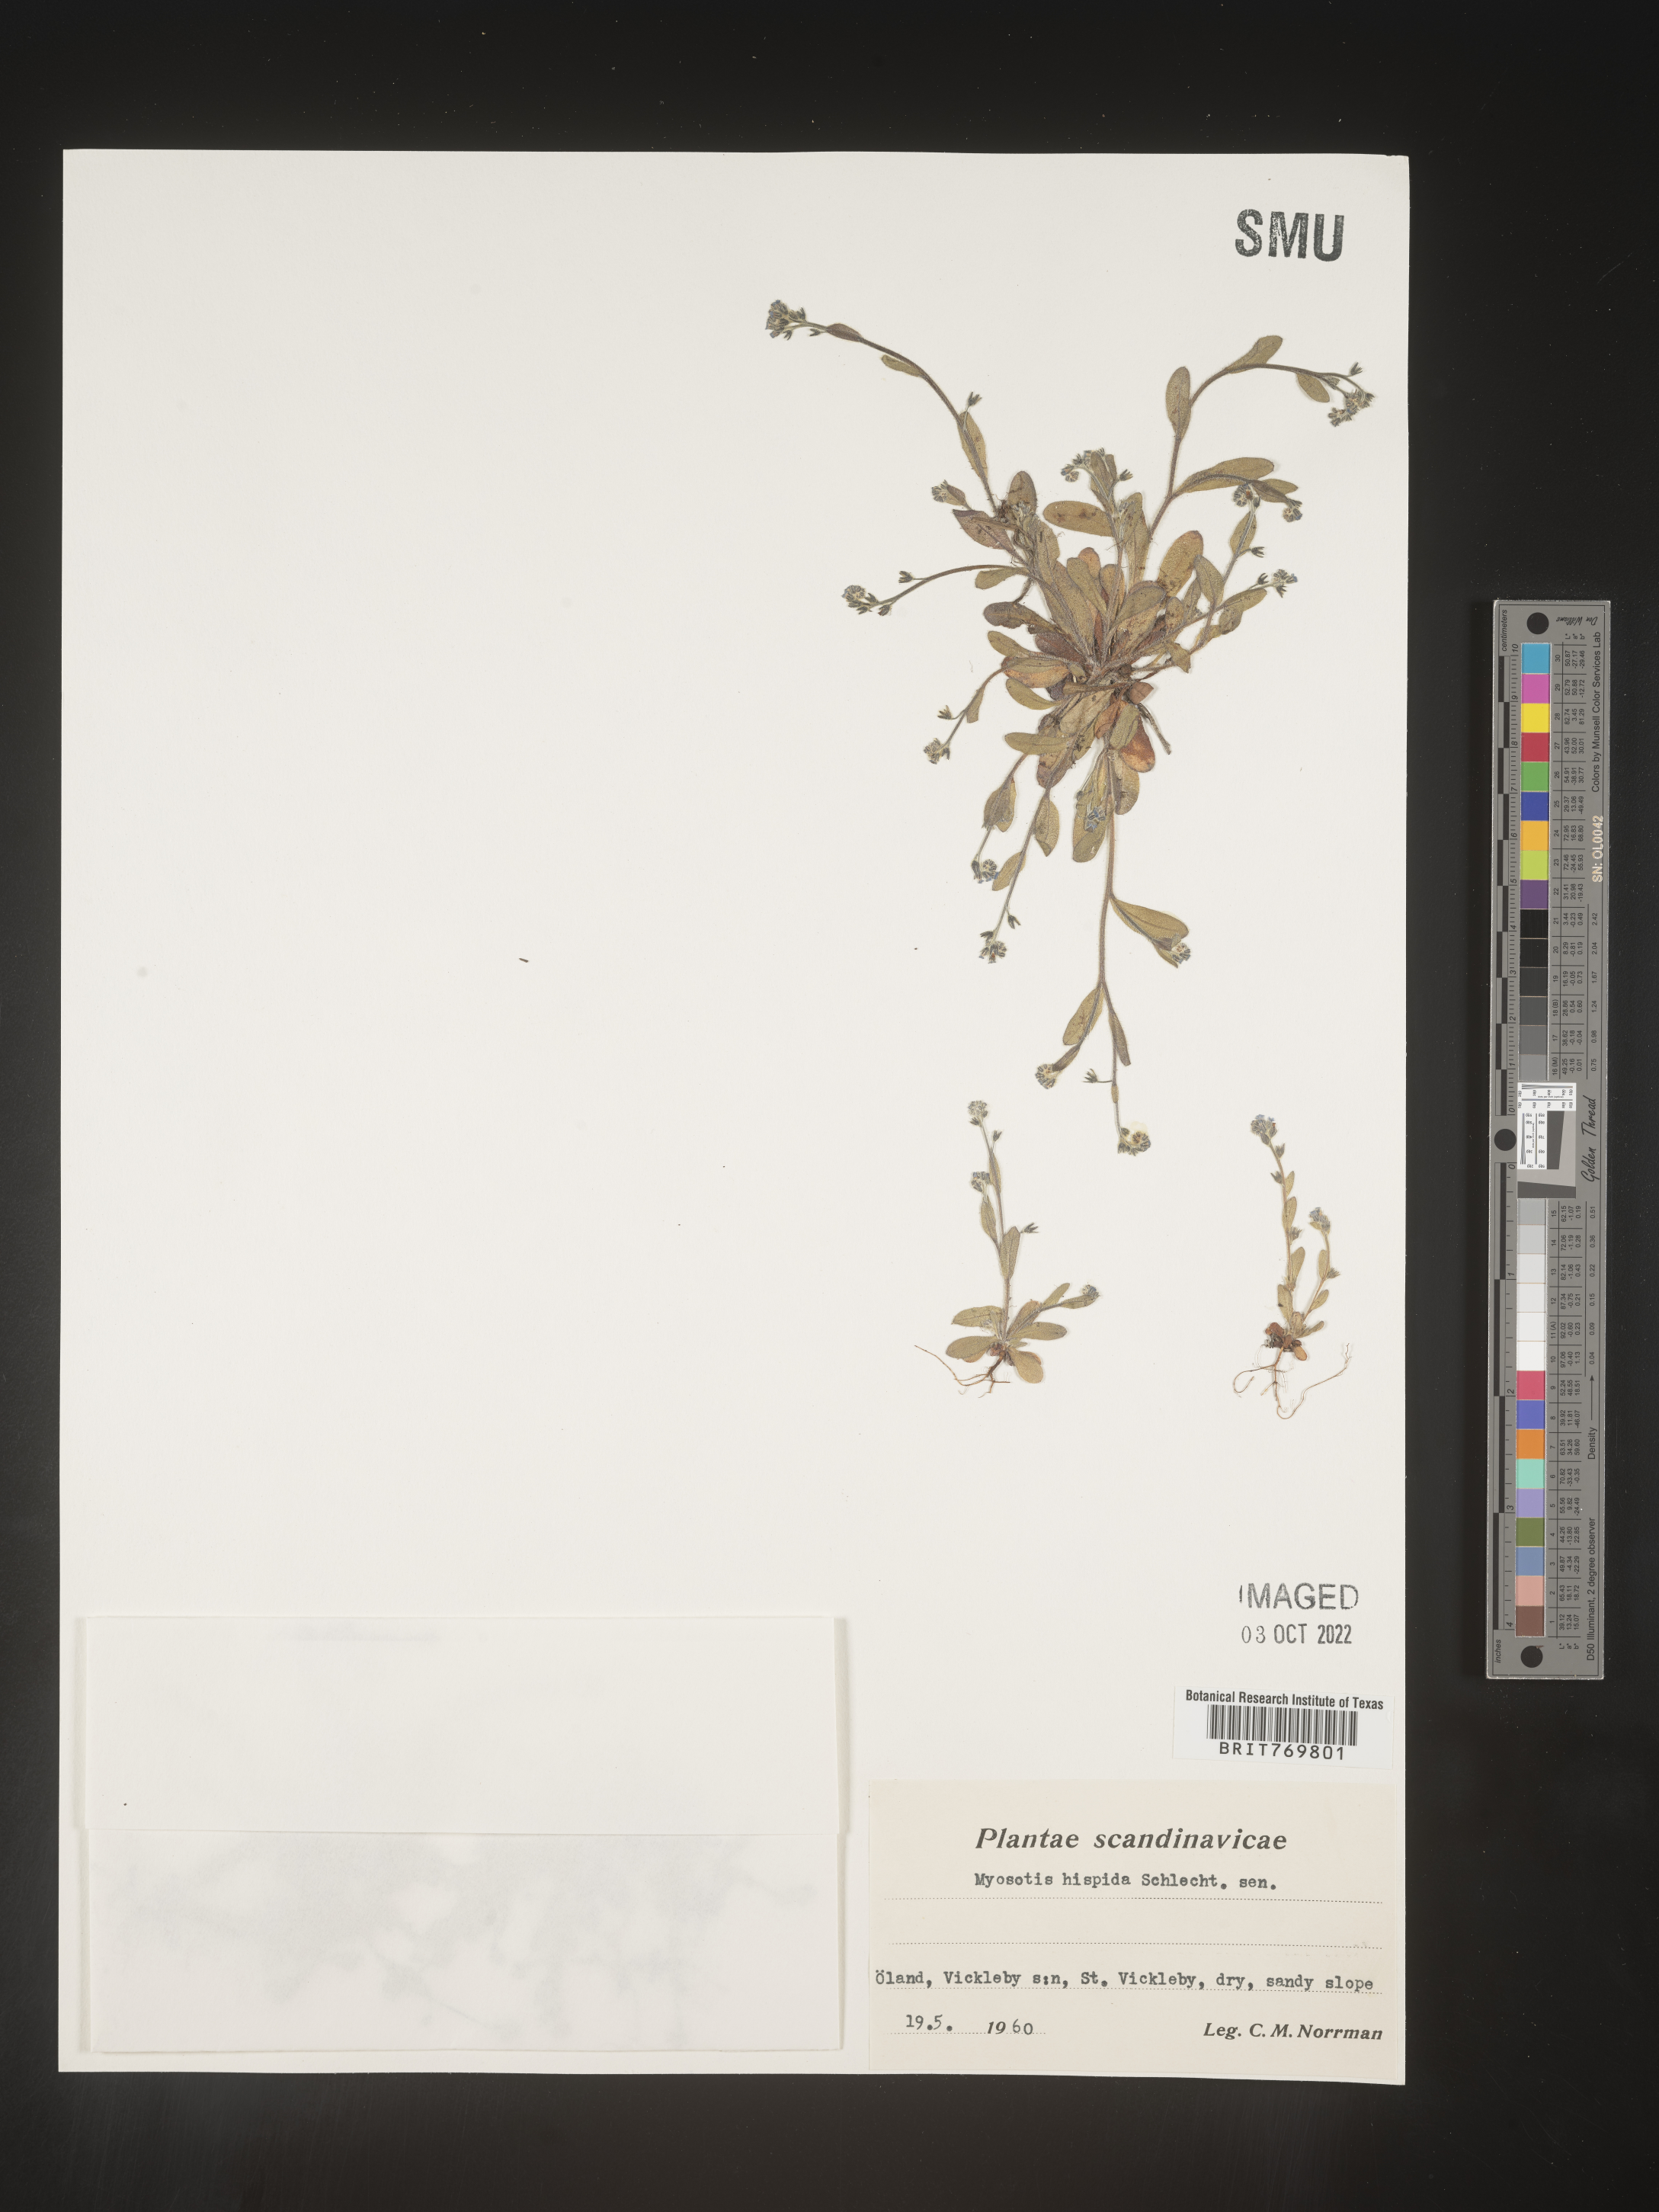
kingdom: Plantae
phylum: Tracheophyta
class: Magnoliopsida
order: Boraginales
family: Boraginaceae
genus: Myosotis
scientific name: Myosotis
